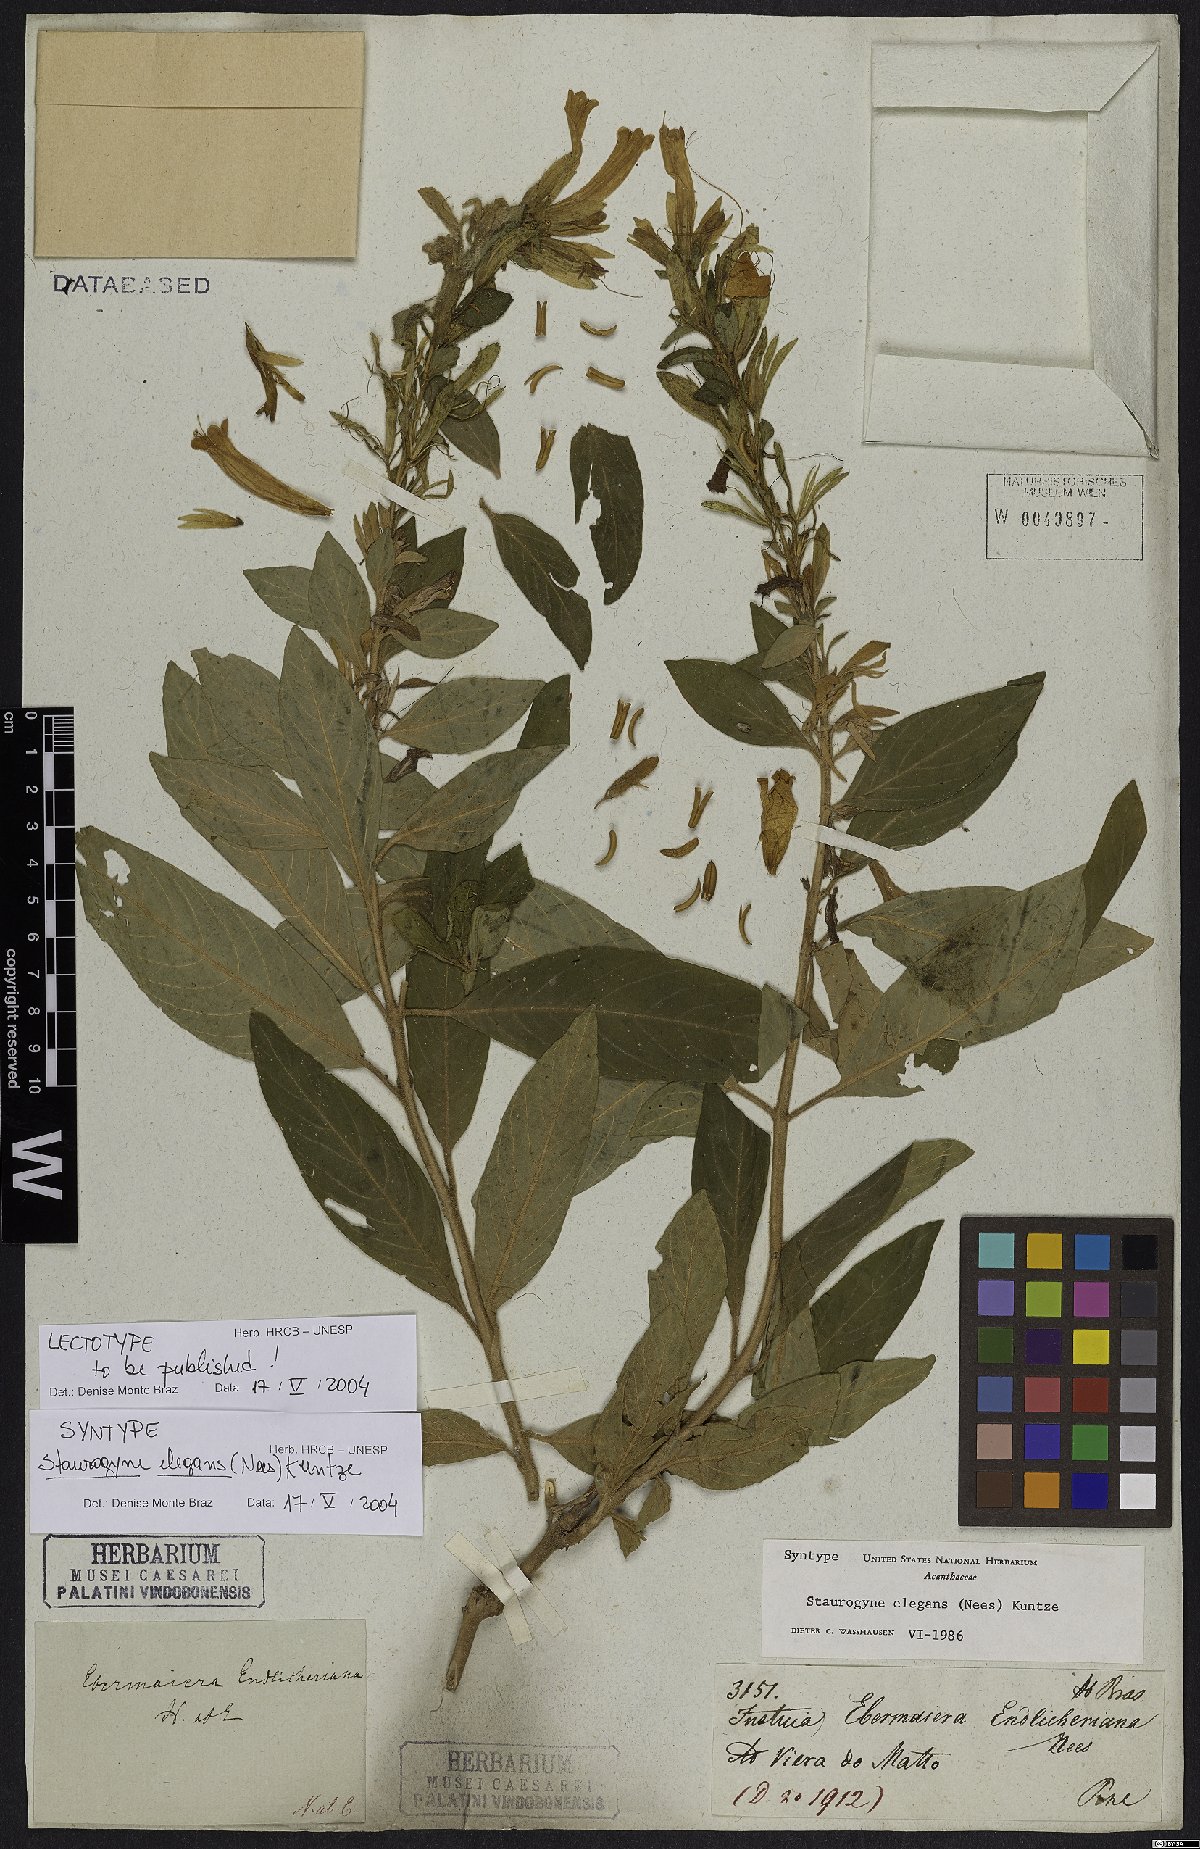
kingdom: Plantae
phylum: Tracheophyta
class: Magnoliopsida
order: Lamiales
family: Acanthaceae
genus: Staurogyne
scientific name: Staurogyne elegans
